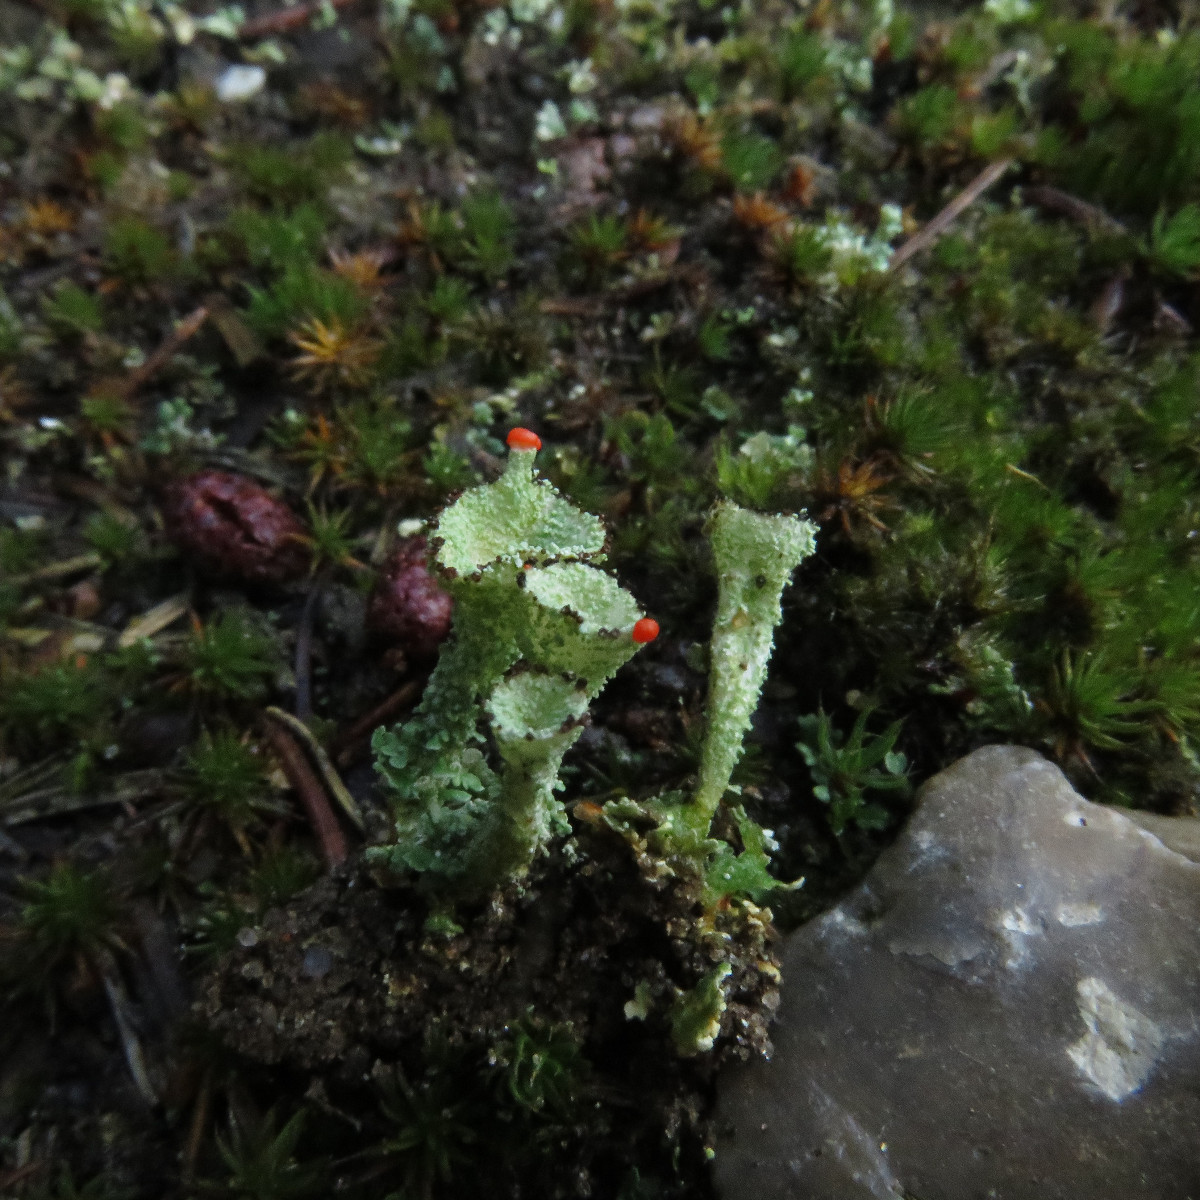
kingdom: Fungi
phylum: Ascomycota
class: Lecanoromycetes
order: Lecanorales
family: Cladoniaceae
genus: Cladonia
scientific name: Cladonia diversa
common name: rød bægerlav
